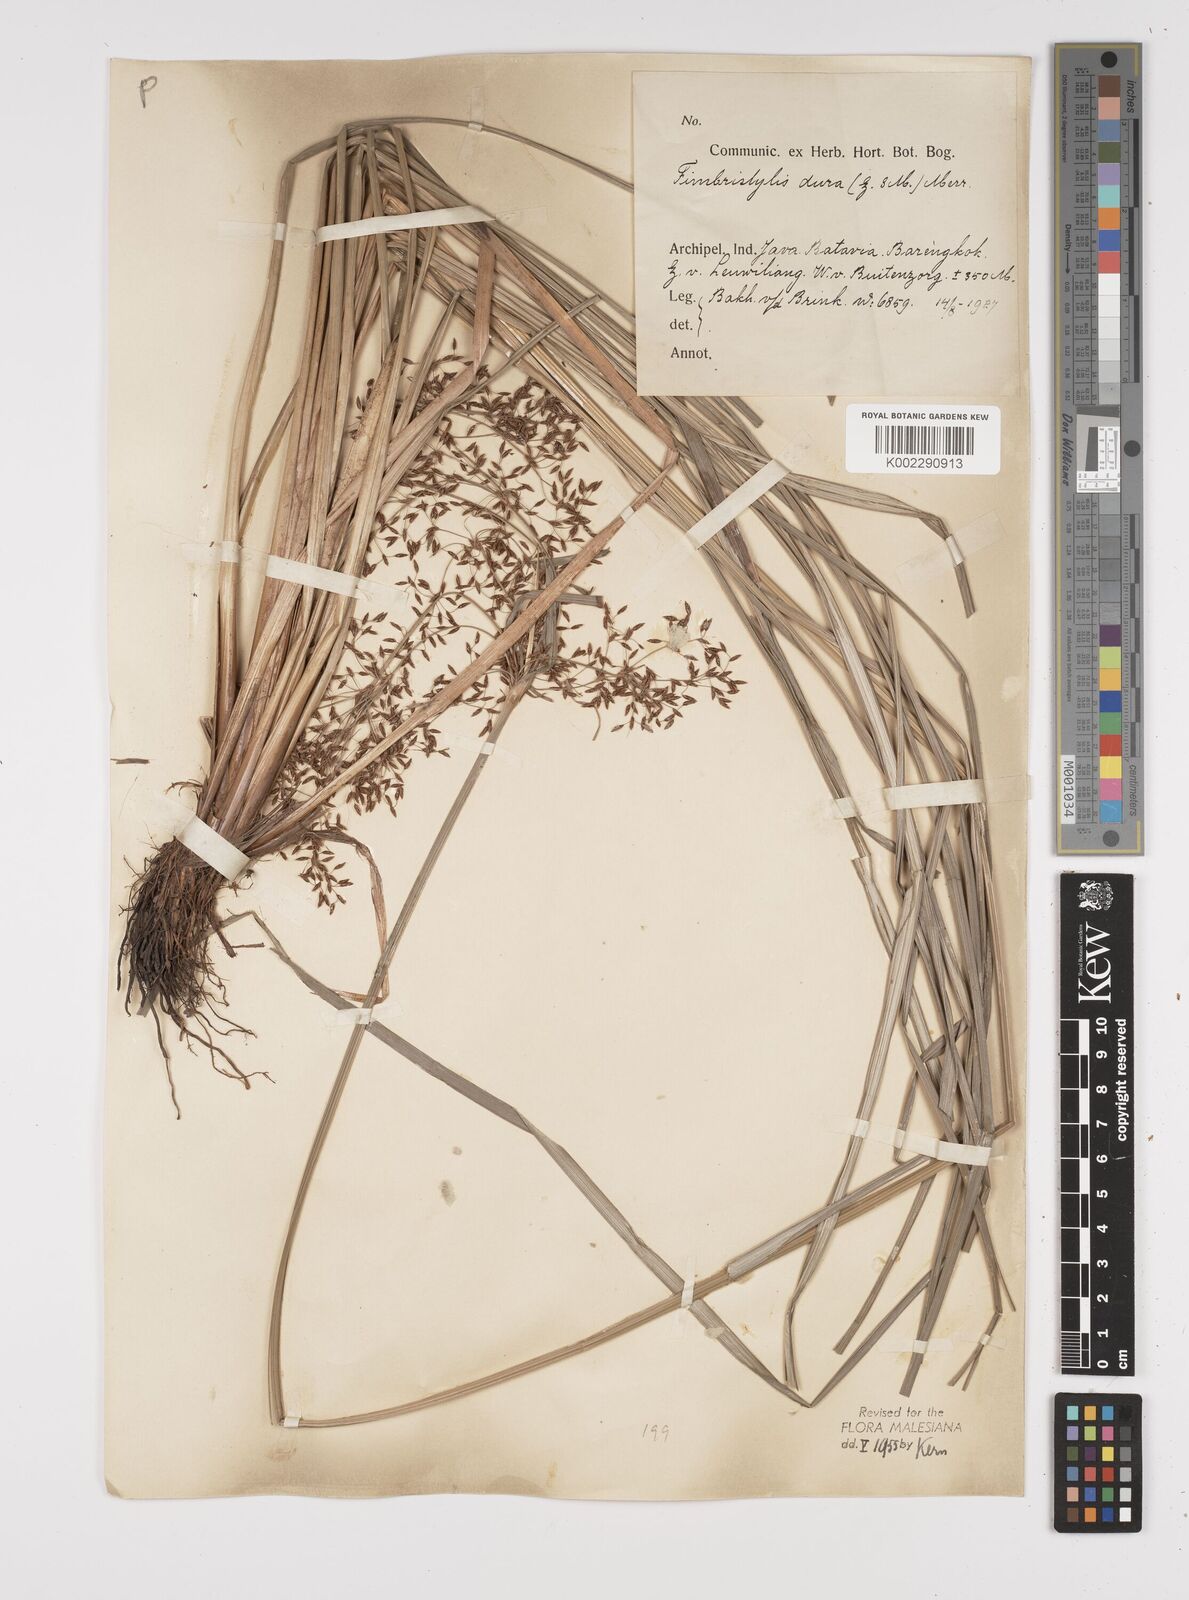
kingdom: Plantae
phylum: Tracheophyta
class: Liliopsida
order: Poales
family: Cyperaceae
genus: Fimbristylis
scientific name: Fimbristylis dura
